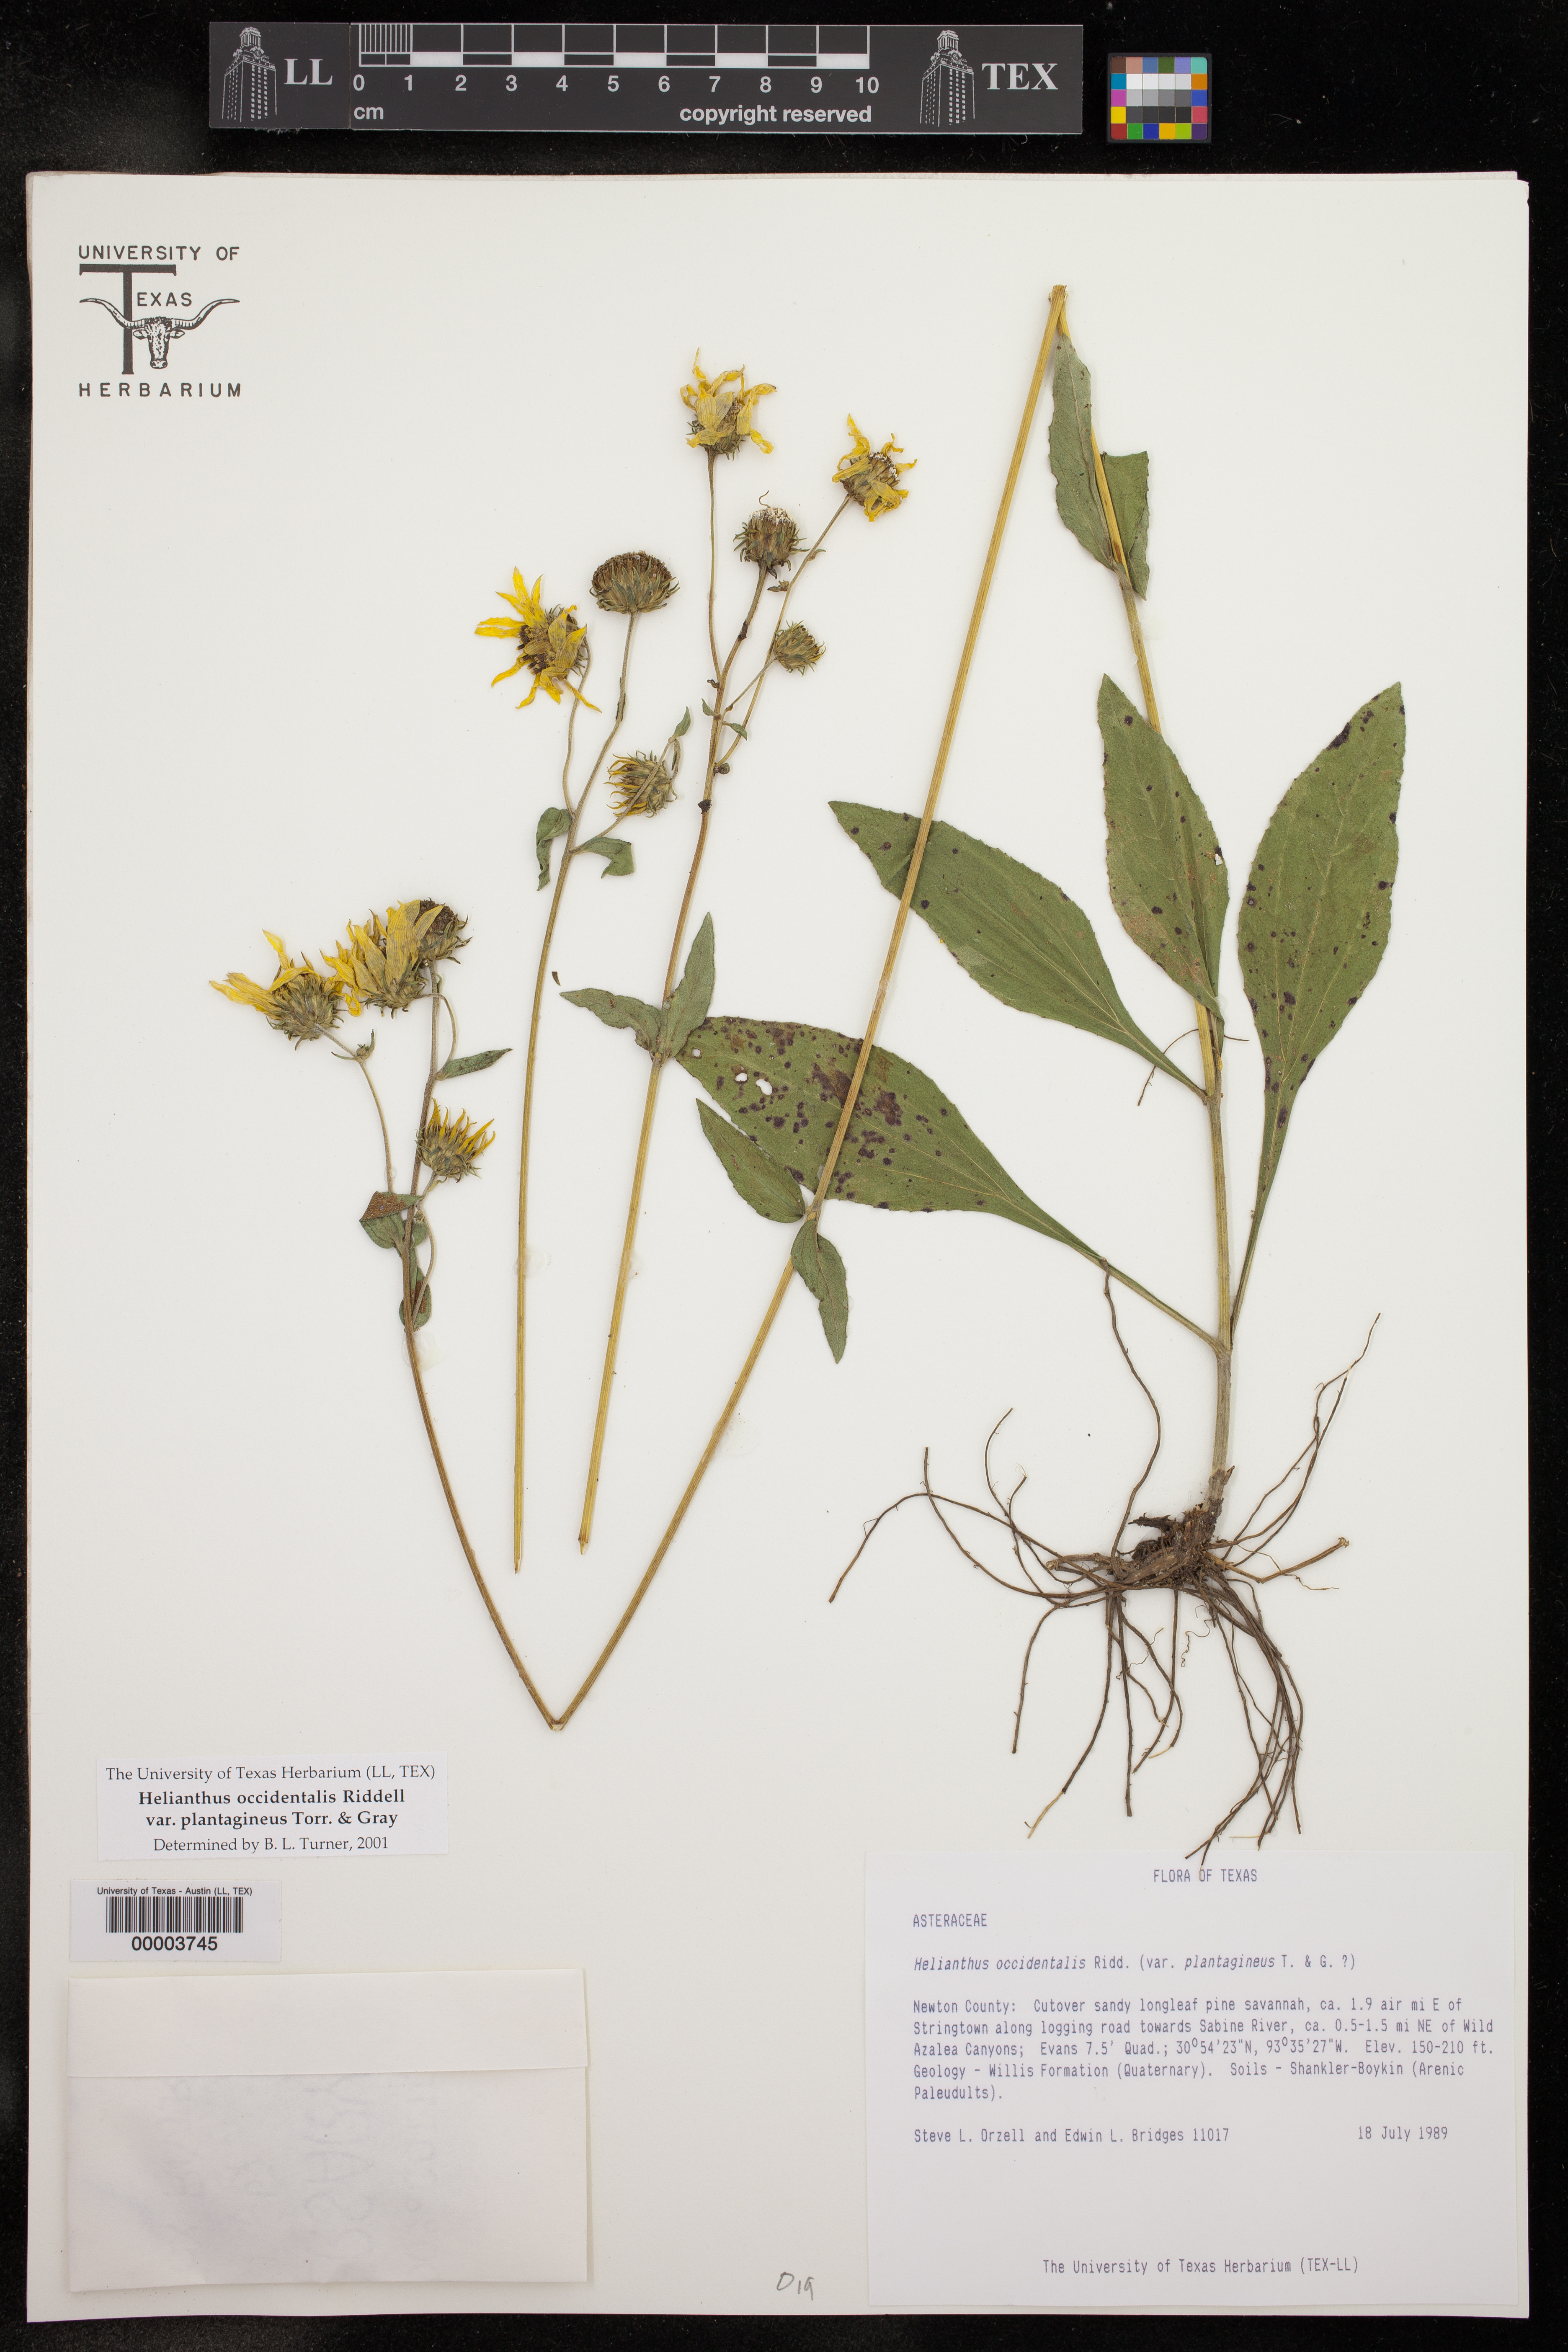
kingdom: Plantae
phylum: Tracheophyta
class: Magnoliopsida
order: Asterales
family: Asteraceae
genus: Helianthus
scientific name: Helianthus occidentalis
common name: Western sunflower
